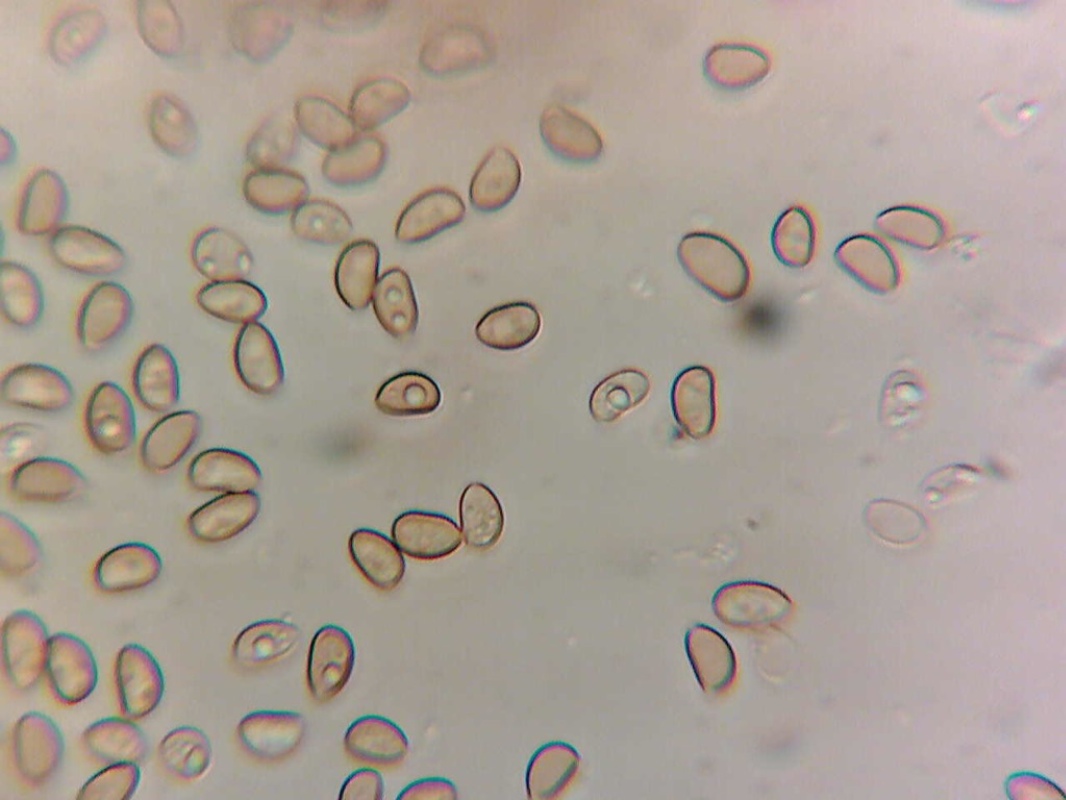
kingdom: Fungi
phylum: Basidiomycota
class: Agaricomycetes
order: Agaricales
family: Crepidotaceae
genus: Simocybe
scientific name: Simocybe
